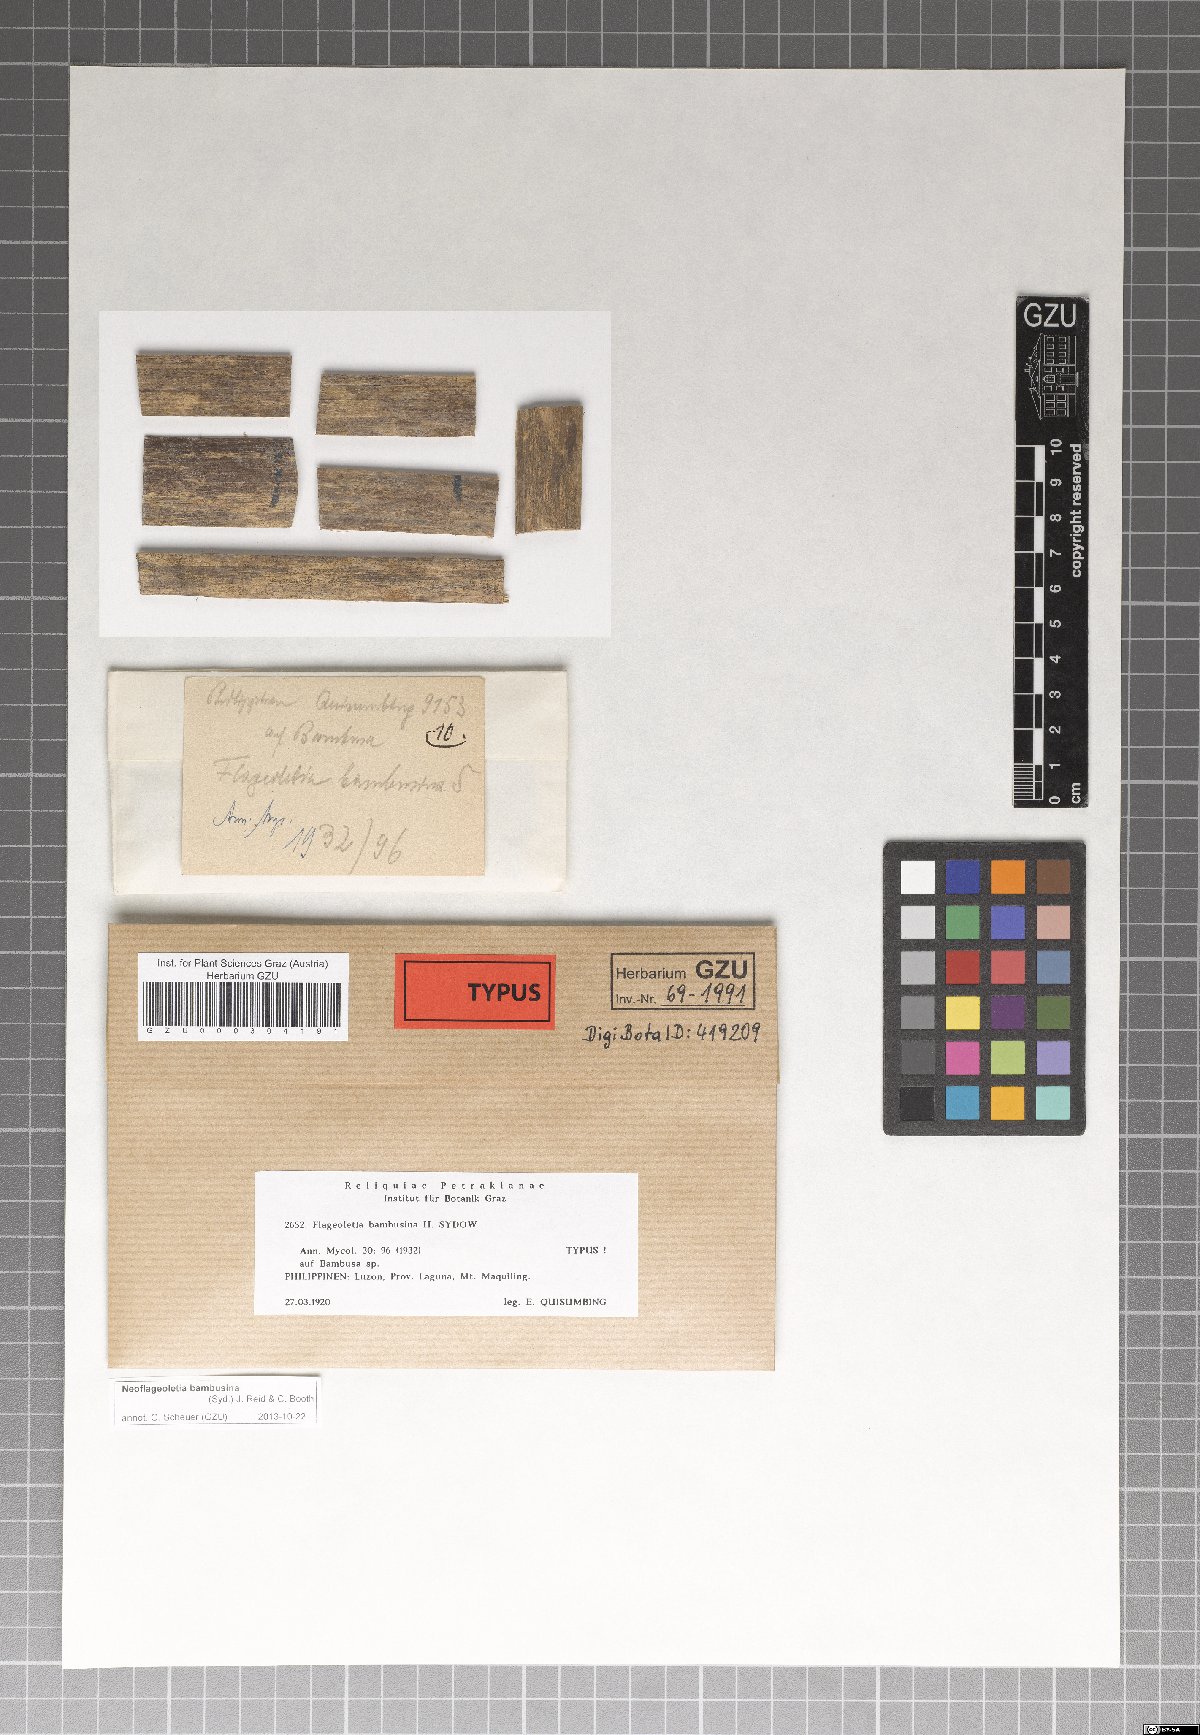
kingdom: Fungi
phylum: Ascomycota
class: Sordariomycetes
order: Phyllachorales
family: Phyllachoraceae
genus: Neoflageoletia
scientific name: Neoflageoletia bambusina
